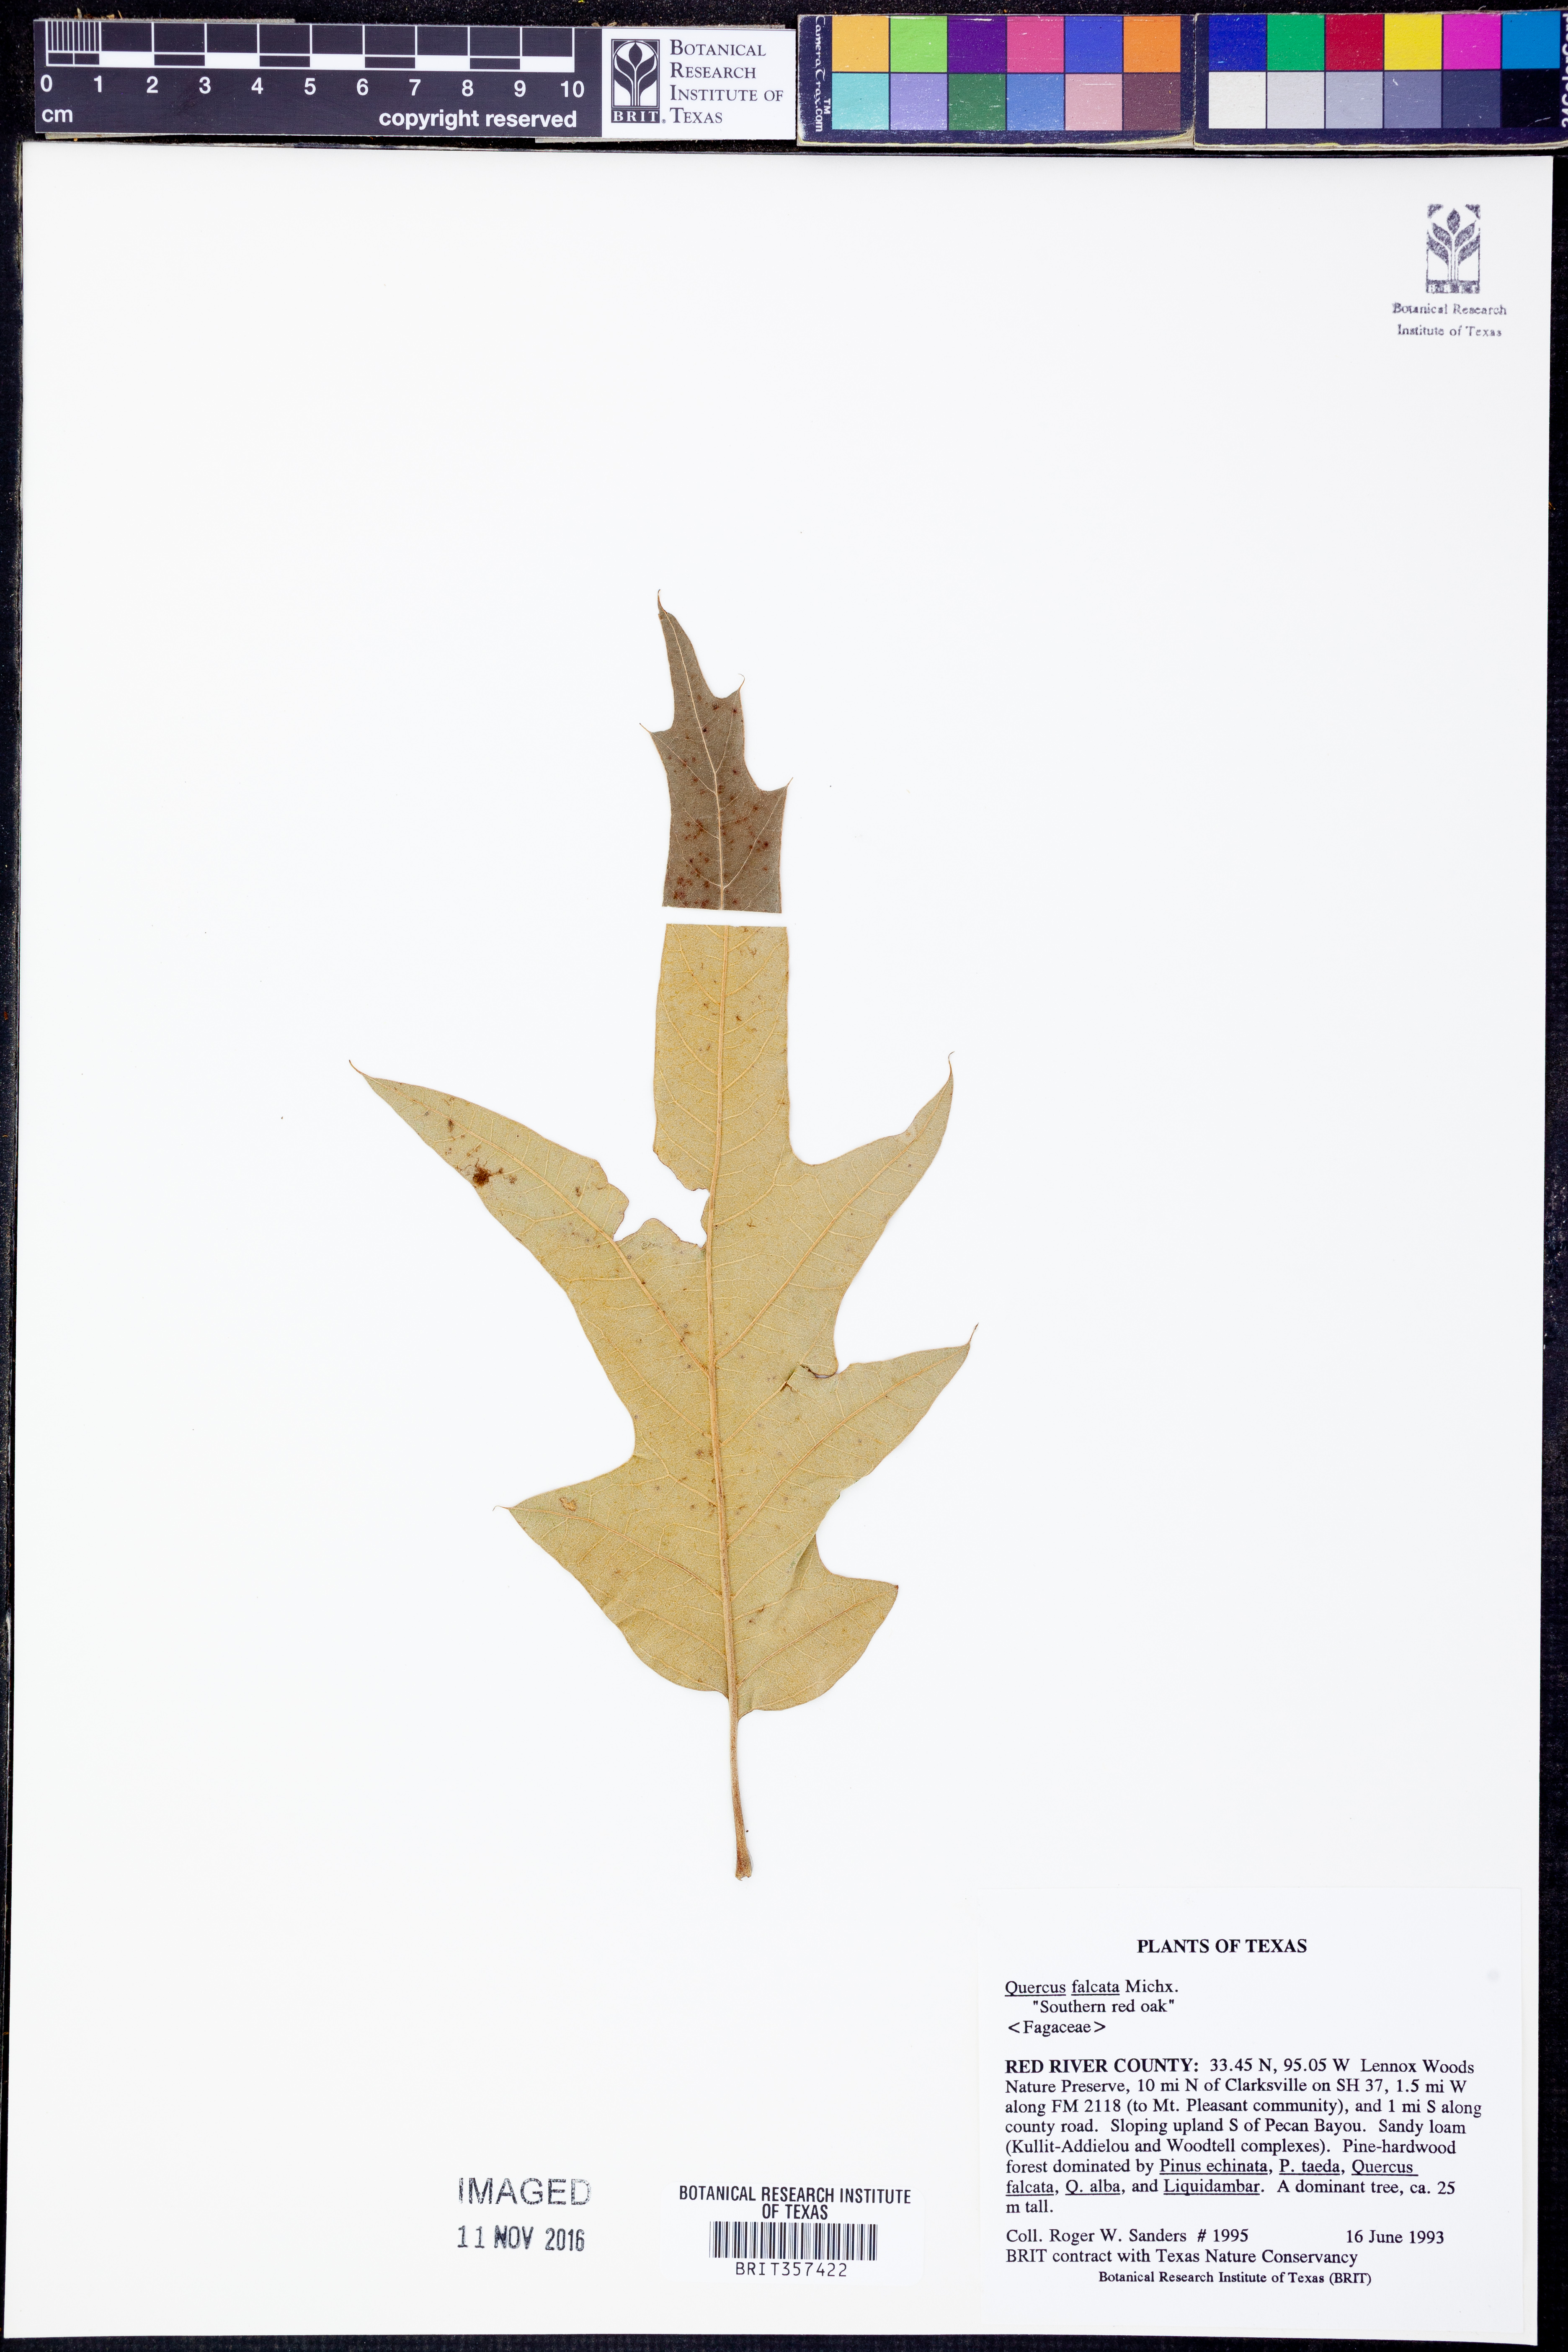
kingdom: Plantae
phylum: Tracheophyta
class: Magnoliopsida
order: Fagales
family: Fagaceae
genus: Quercus
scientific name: Quercus falcata
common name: Southern red oak
